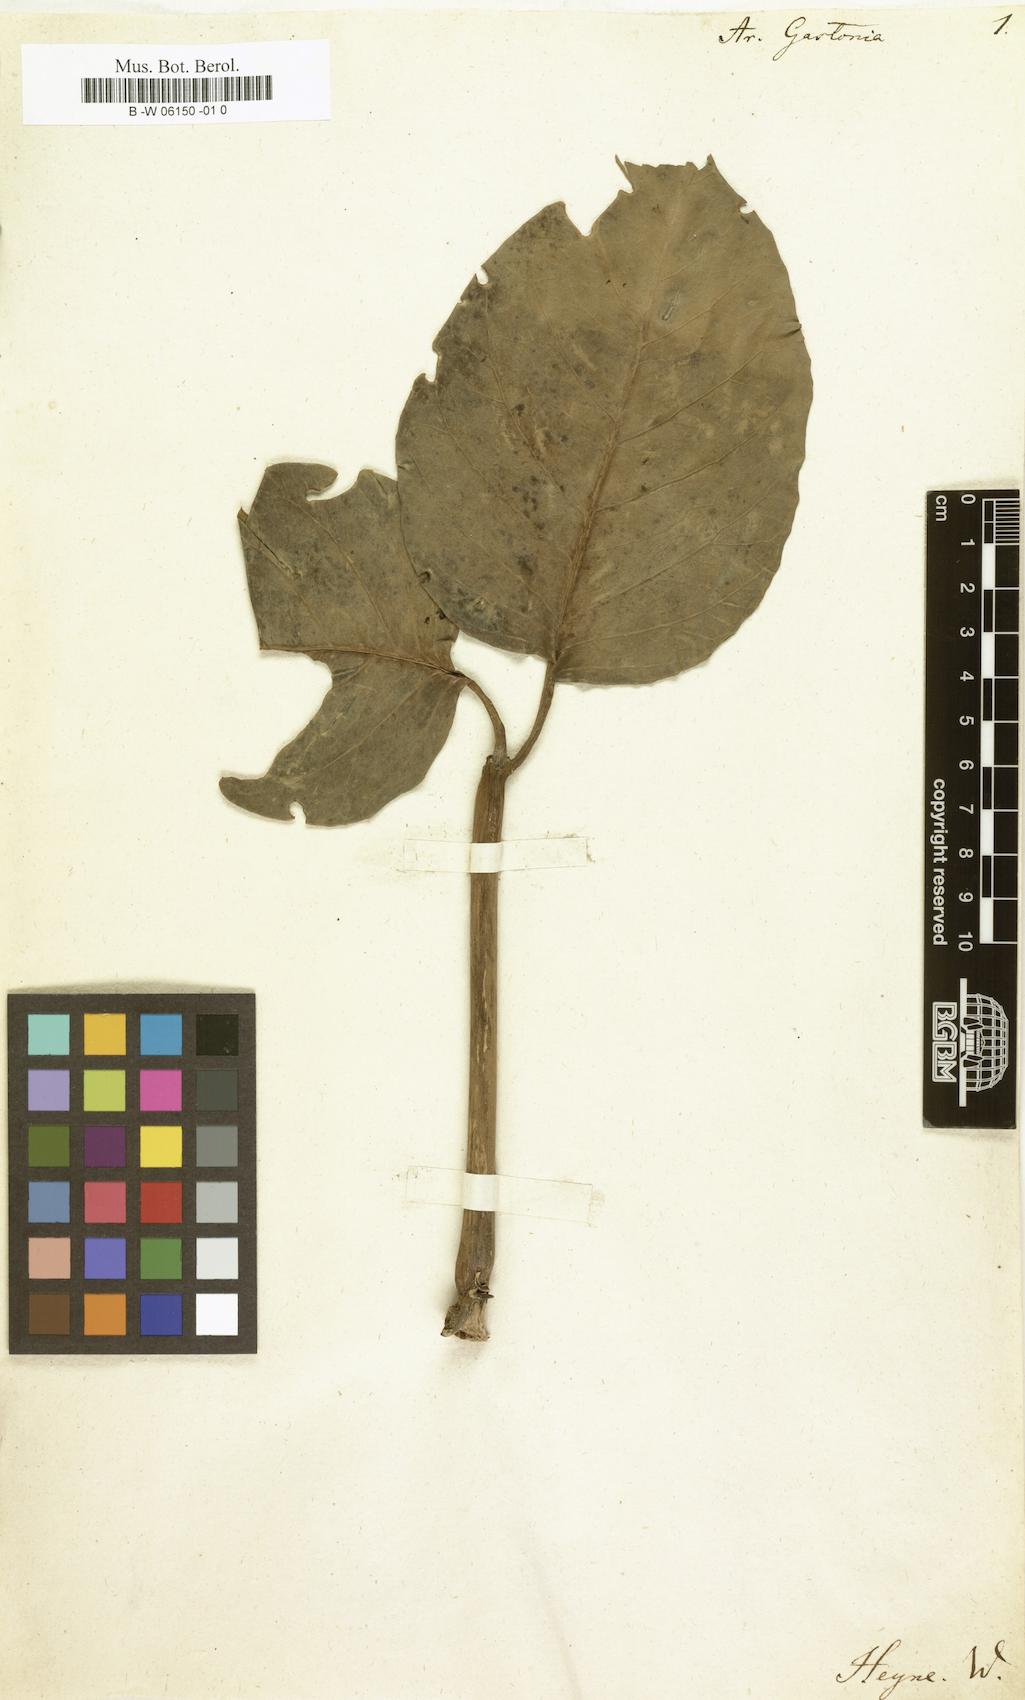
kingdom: Plantae
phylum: Tracheophyta
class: Magnoliopsida
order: Apiales
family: Araliaceae
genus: Aralia
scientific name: Aralia
